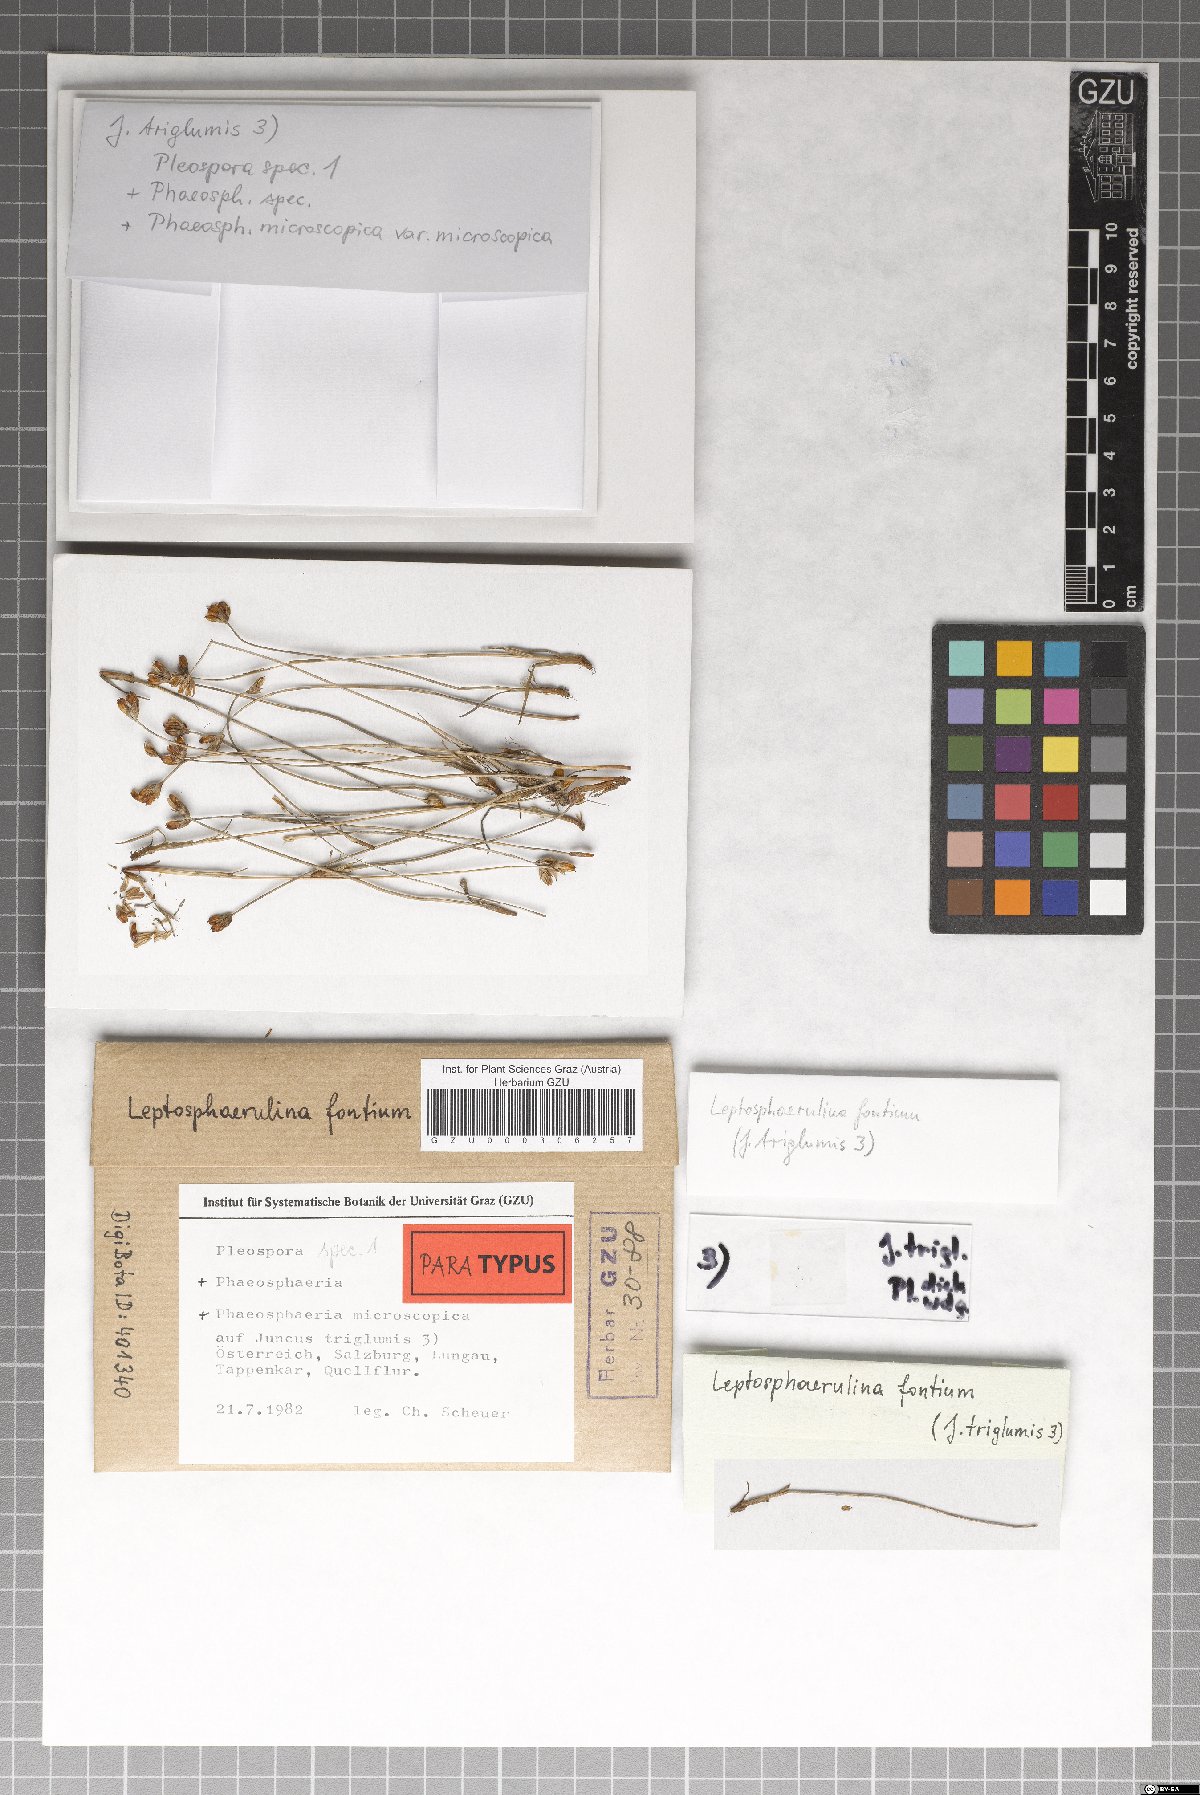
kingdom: Fungi
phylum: Ascomycota
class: Dothideomycetes
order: Pleosporales
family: Didymellaceae
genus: Leptosphaerulina
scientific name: Leptosphaerulina fontium
